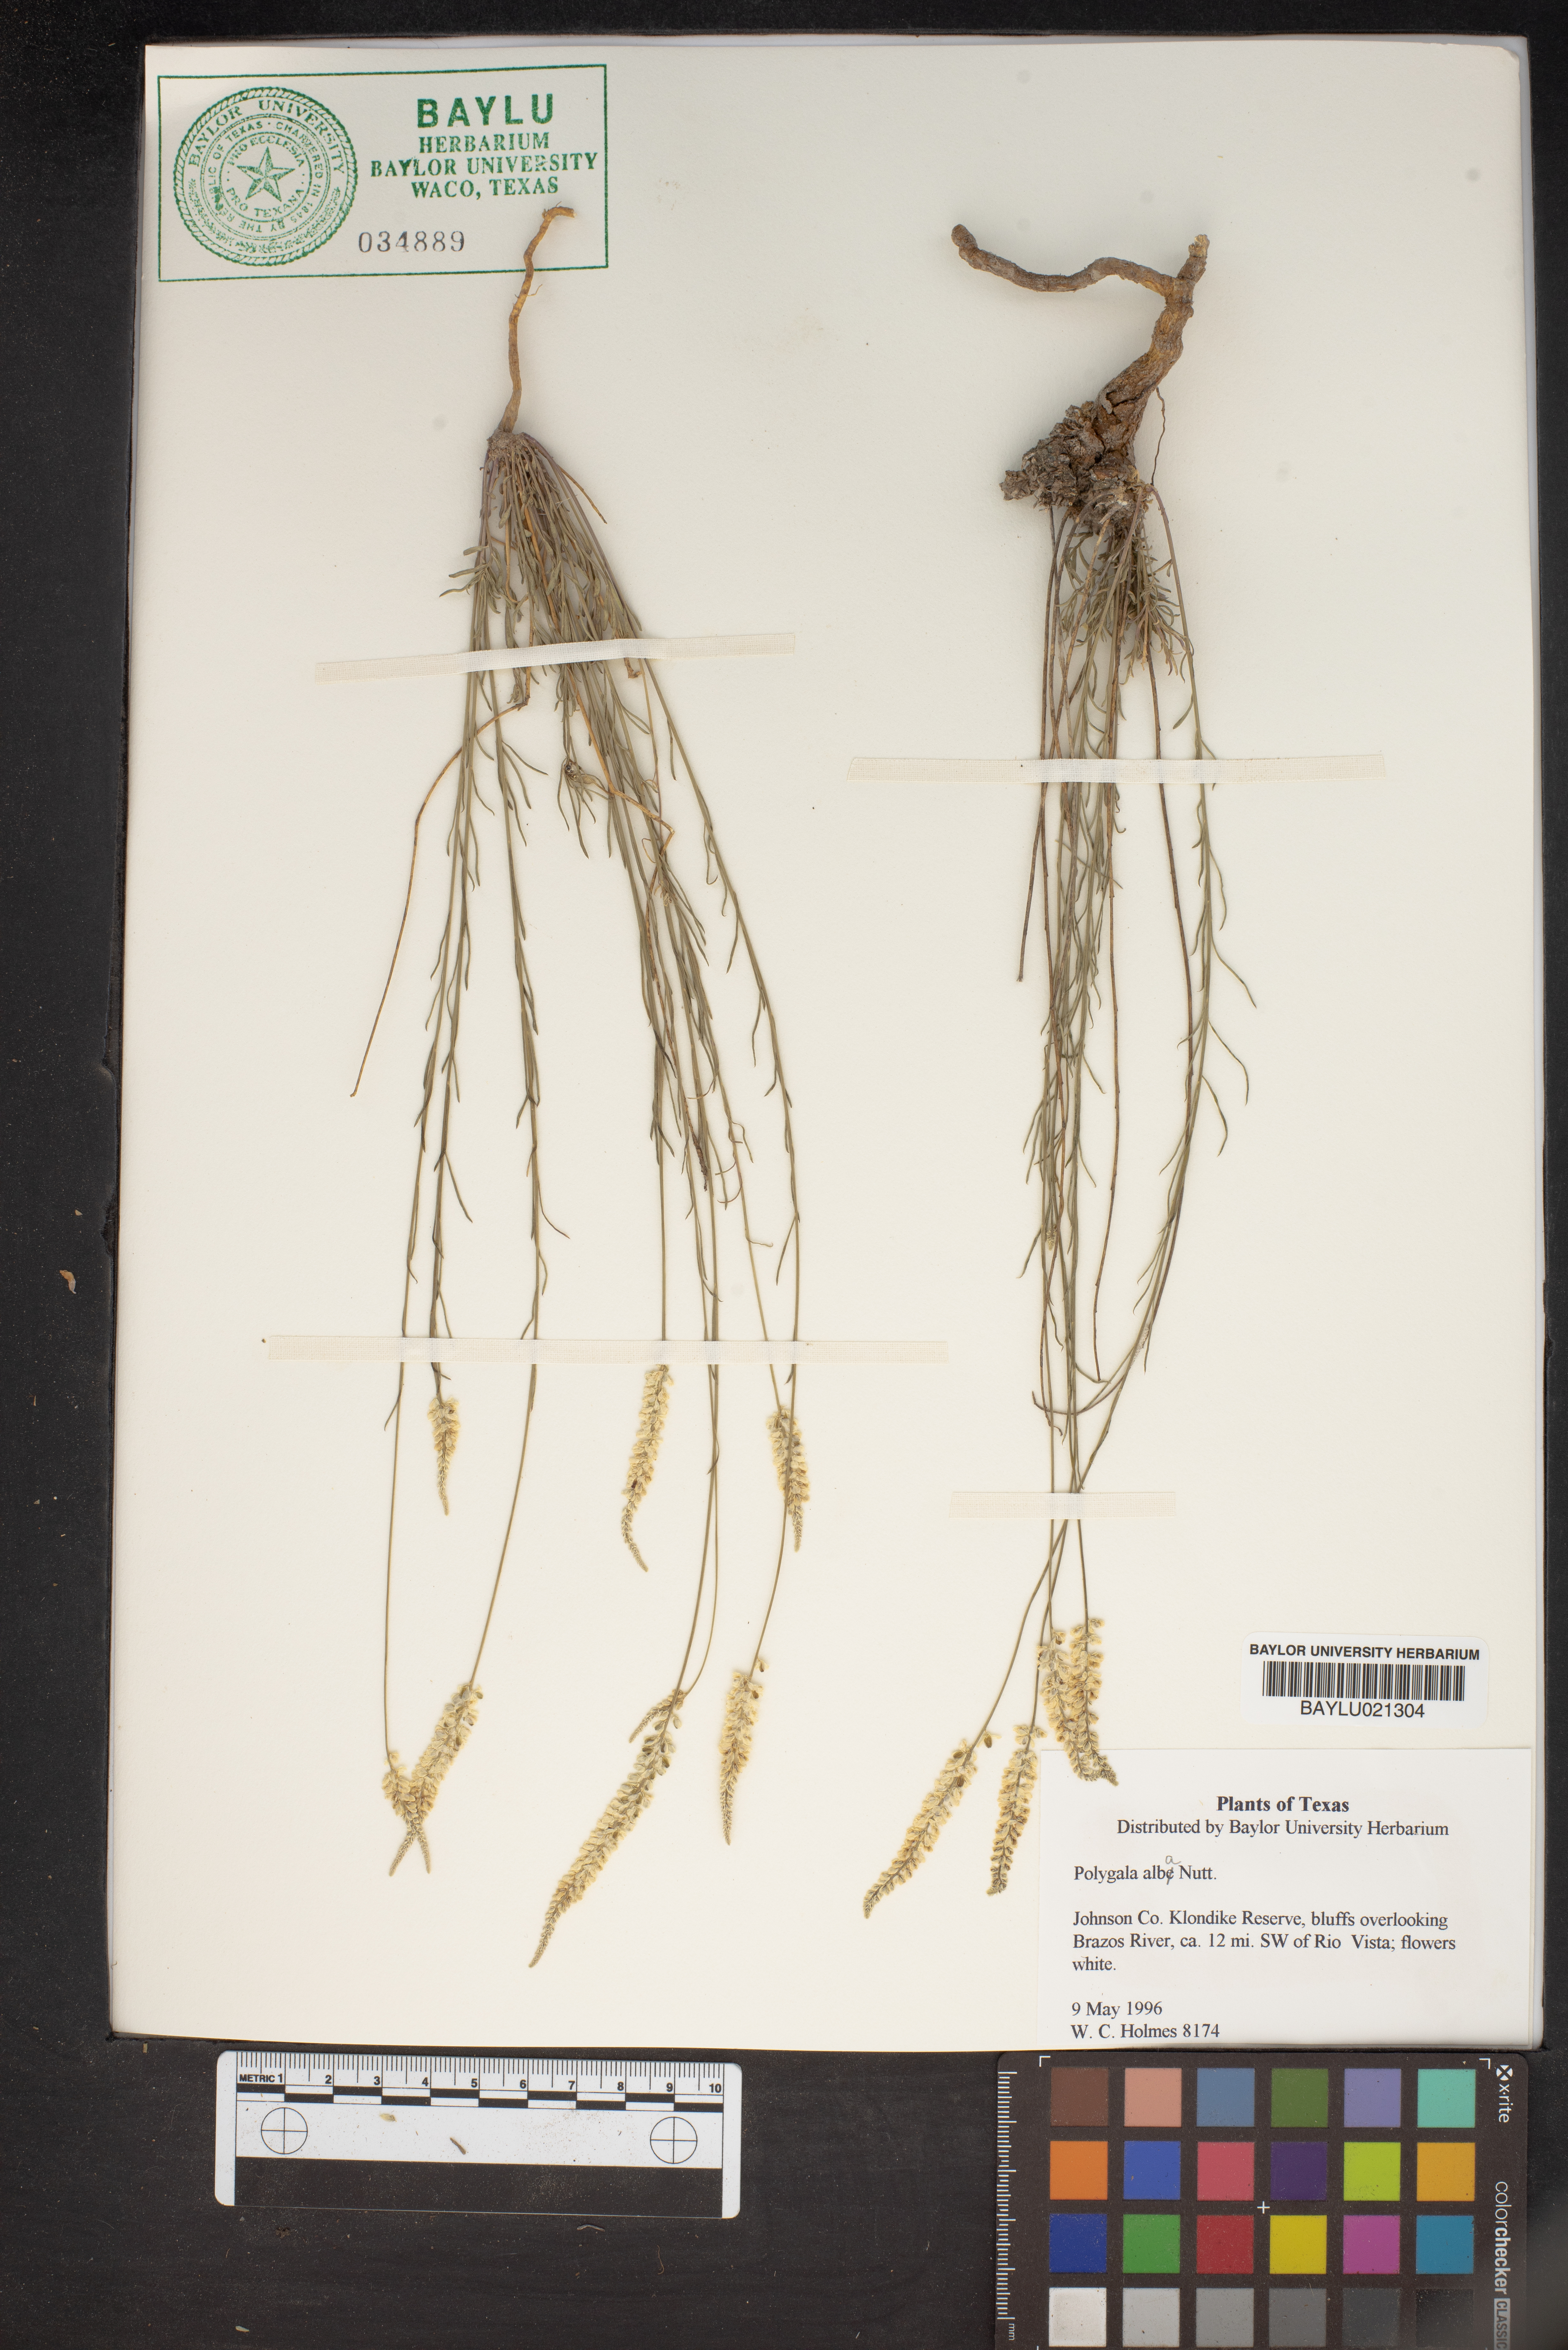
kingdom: Plantae
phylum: Tracheophyta
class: Magnoliopsida
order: Fabales
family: Polygalaceae
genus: Polygala
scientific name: Polygala alba
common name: White milkwort
